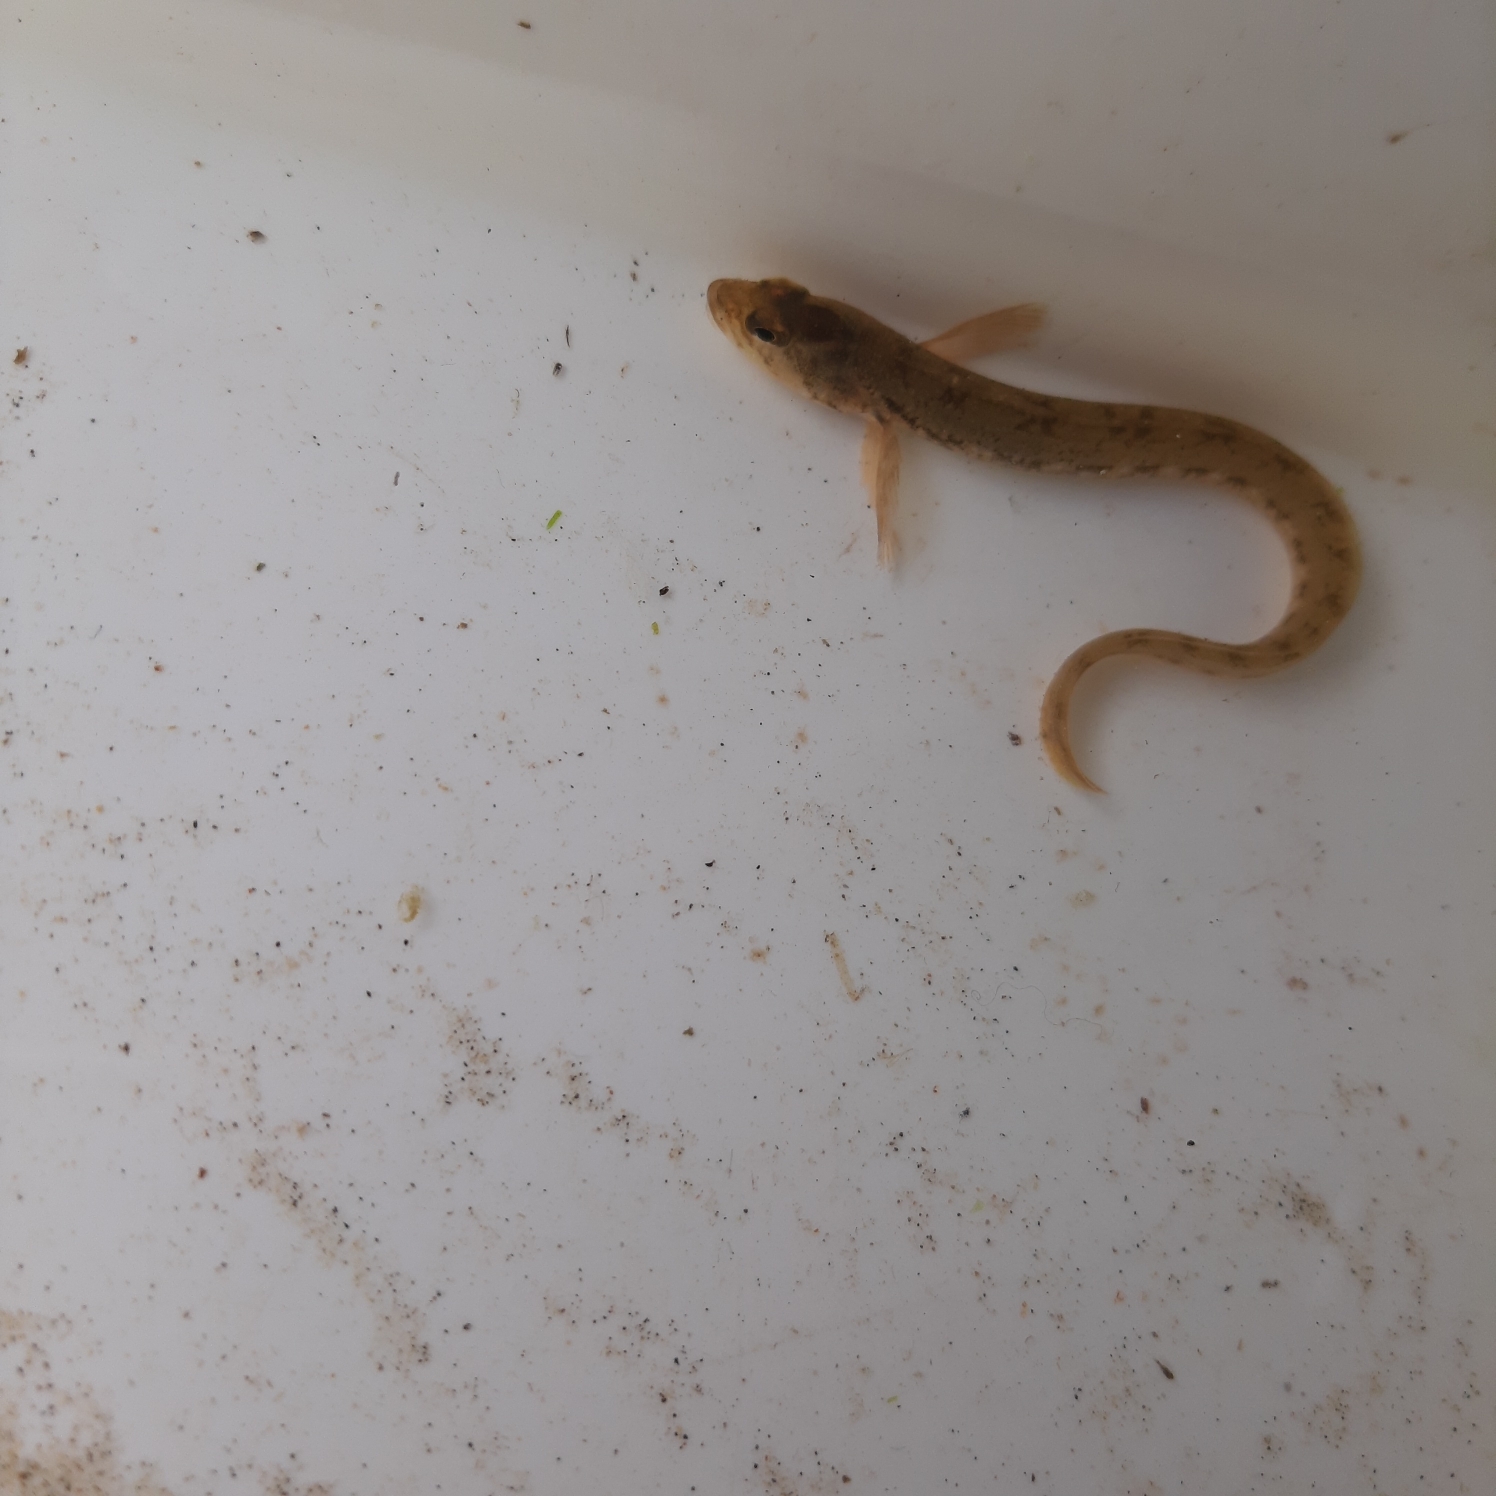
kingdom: Animalia
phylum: Chordata
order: Perciformes
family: Zoarcidae
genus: Zoarces
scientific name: Zoarces viviparus
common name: Ålekvabbe
